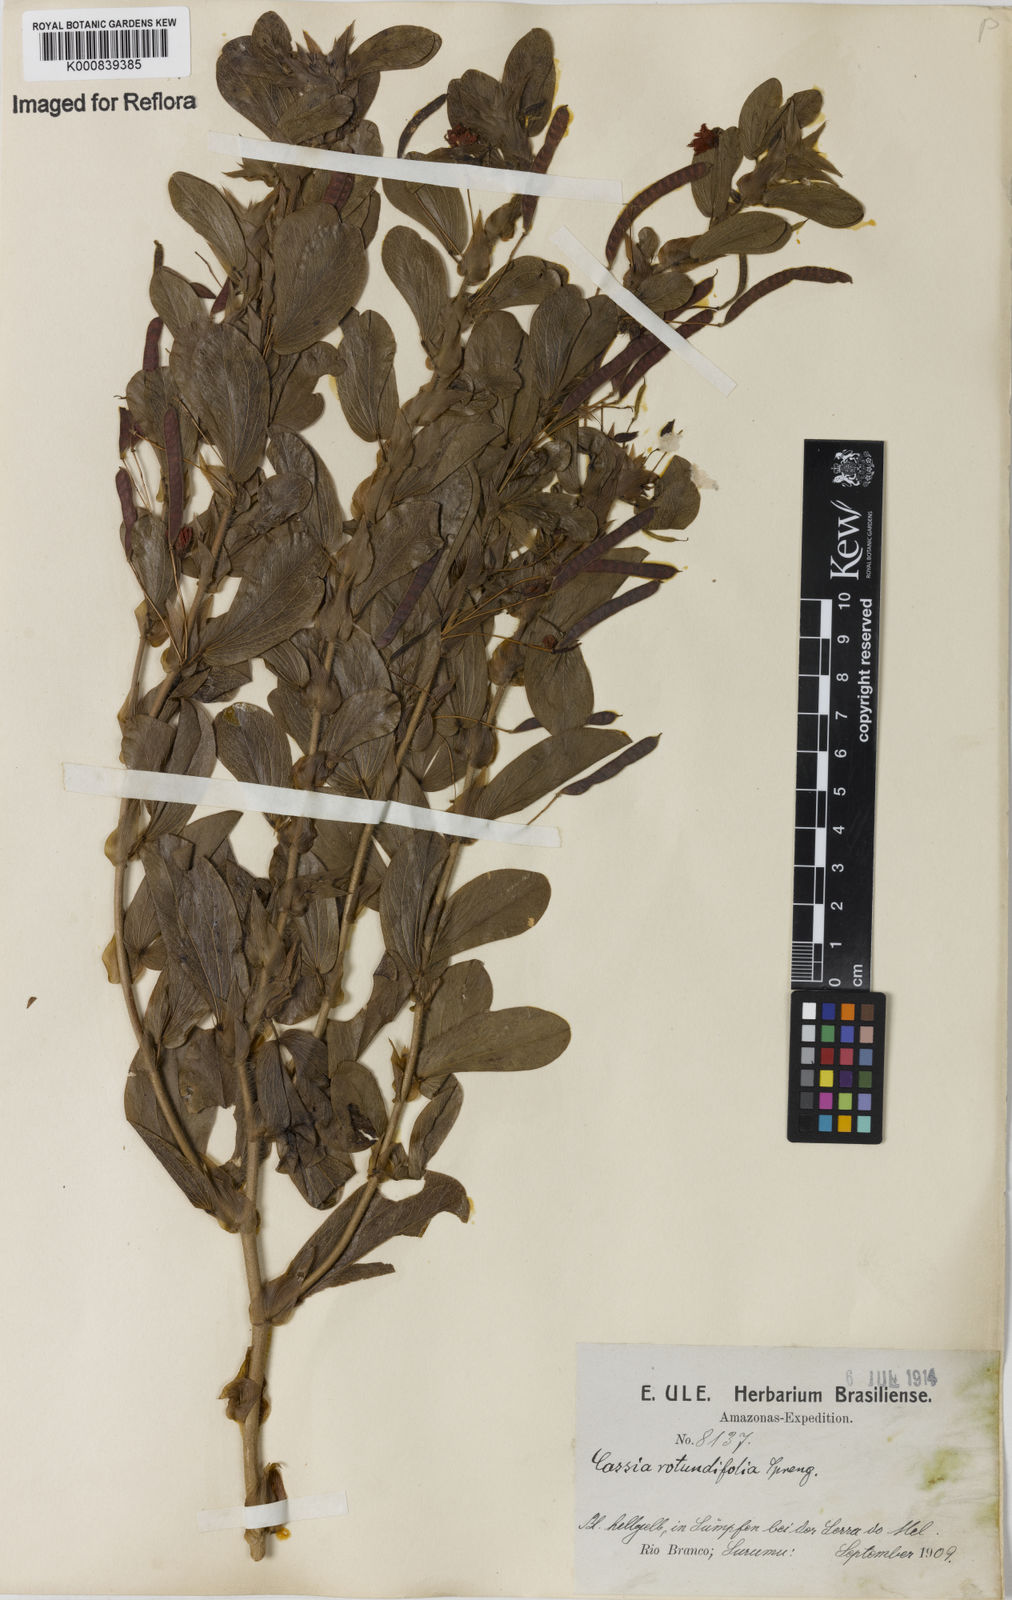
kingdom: Plantae
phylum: Tracheophyta
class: Magnoliopsida
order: Fabales
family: Fabaceae
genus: Chamaecrista
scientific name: Chamaecrista rotundifolia
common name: Round-leaf cassia
